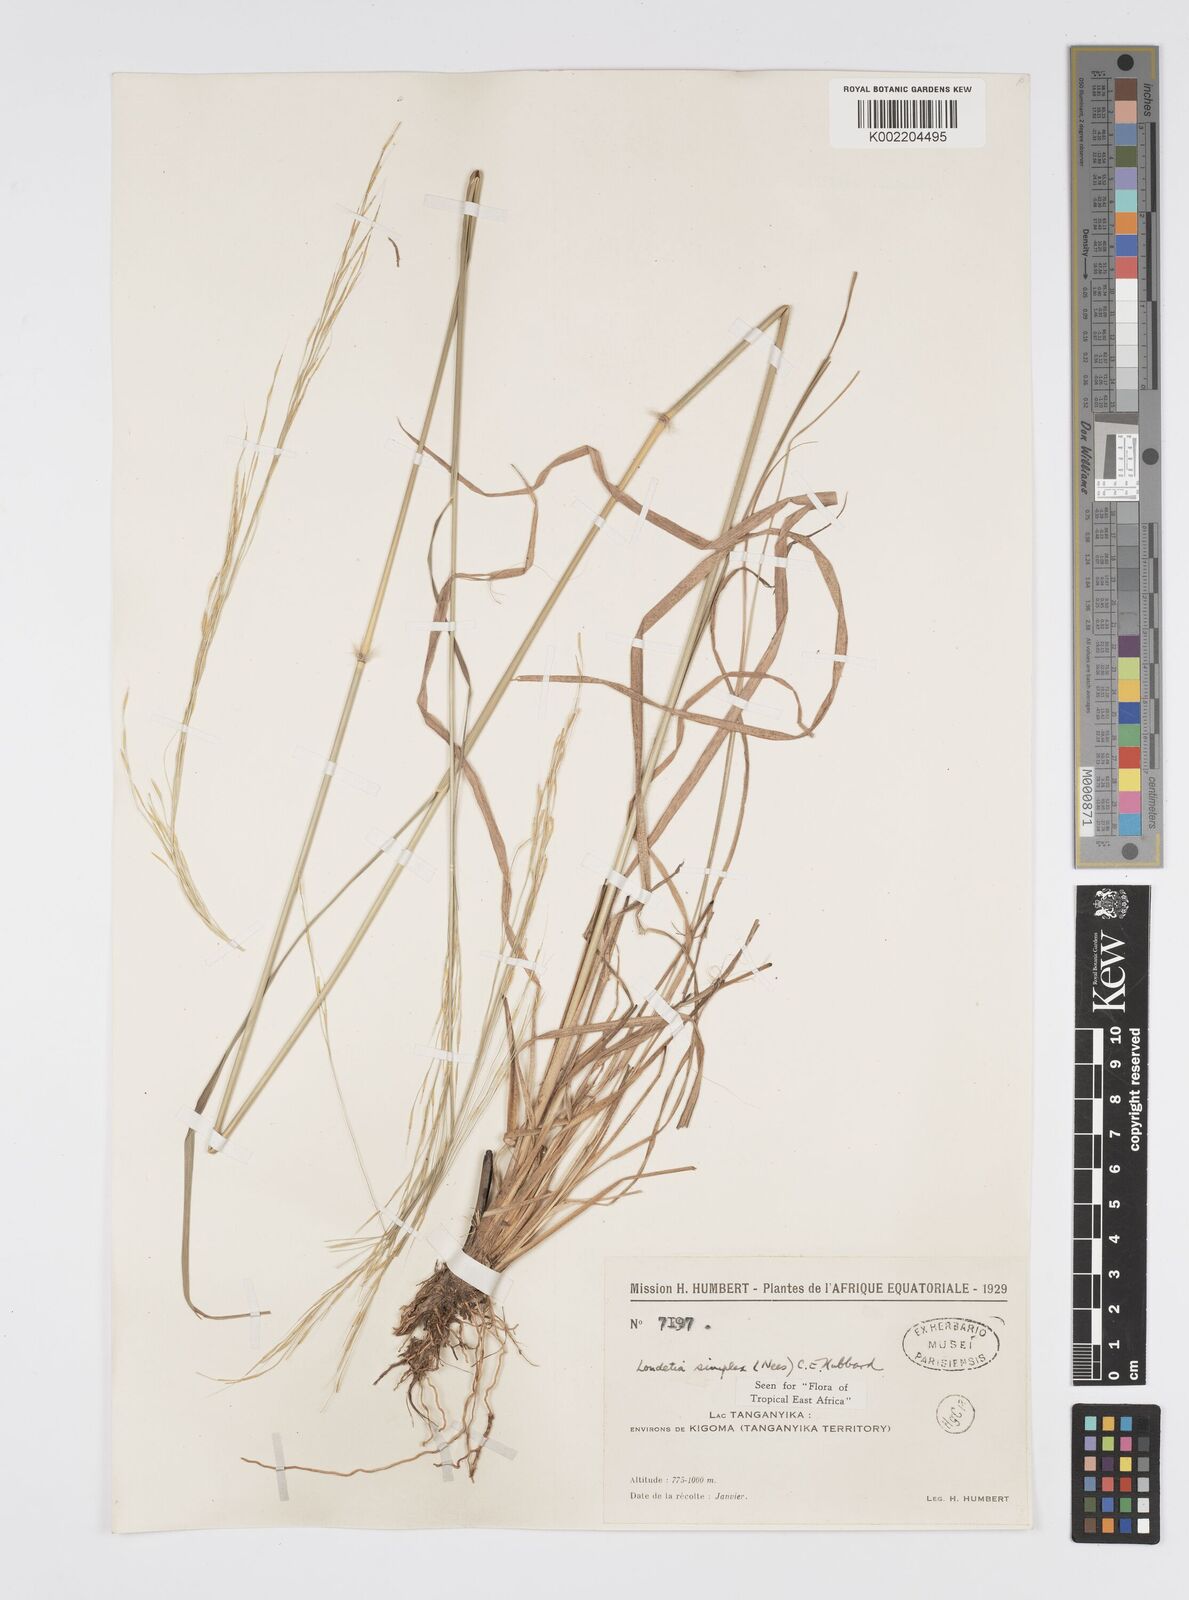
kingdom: Plantae
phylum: Tracheophyta
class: Liliopsida
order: Poales
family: Poaceae
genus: Loudetia
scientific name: Loudetia simplex
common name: Common russet grass
